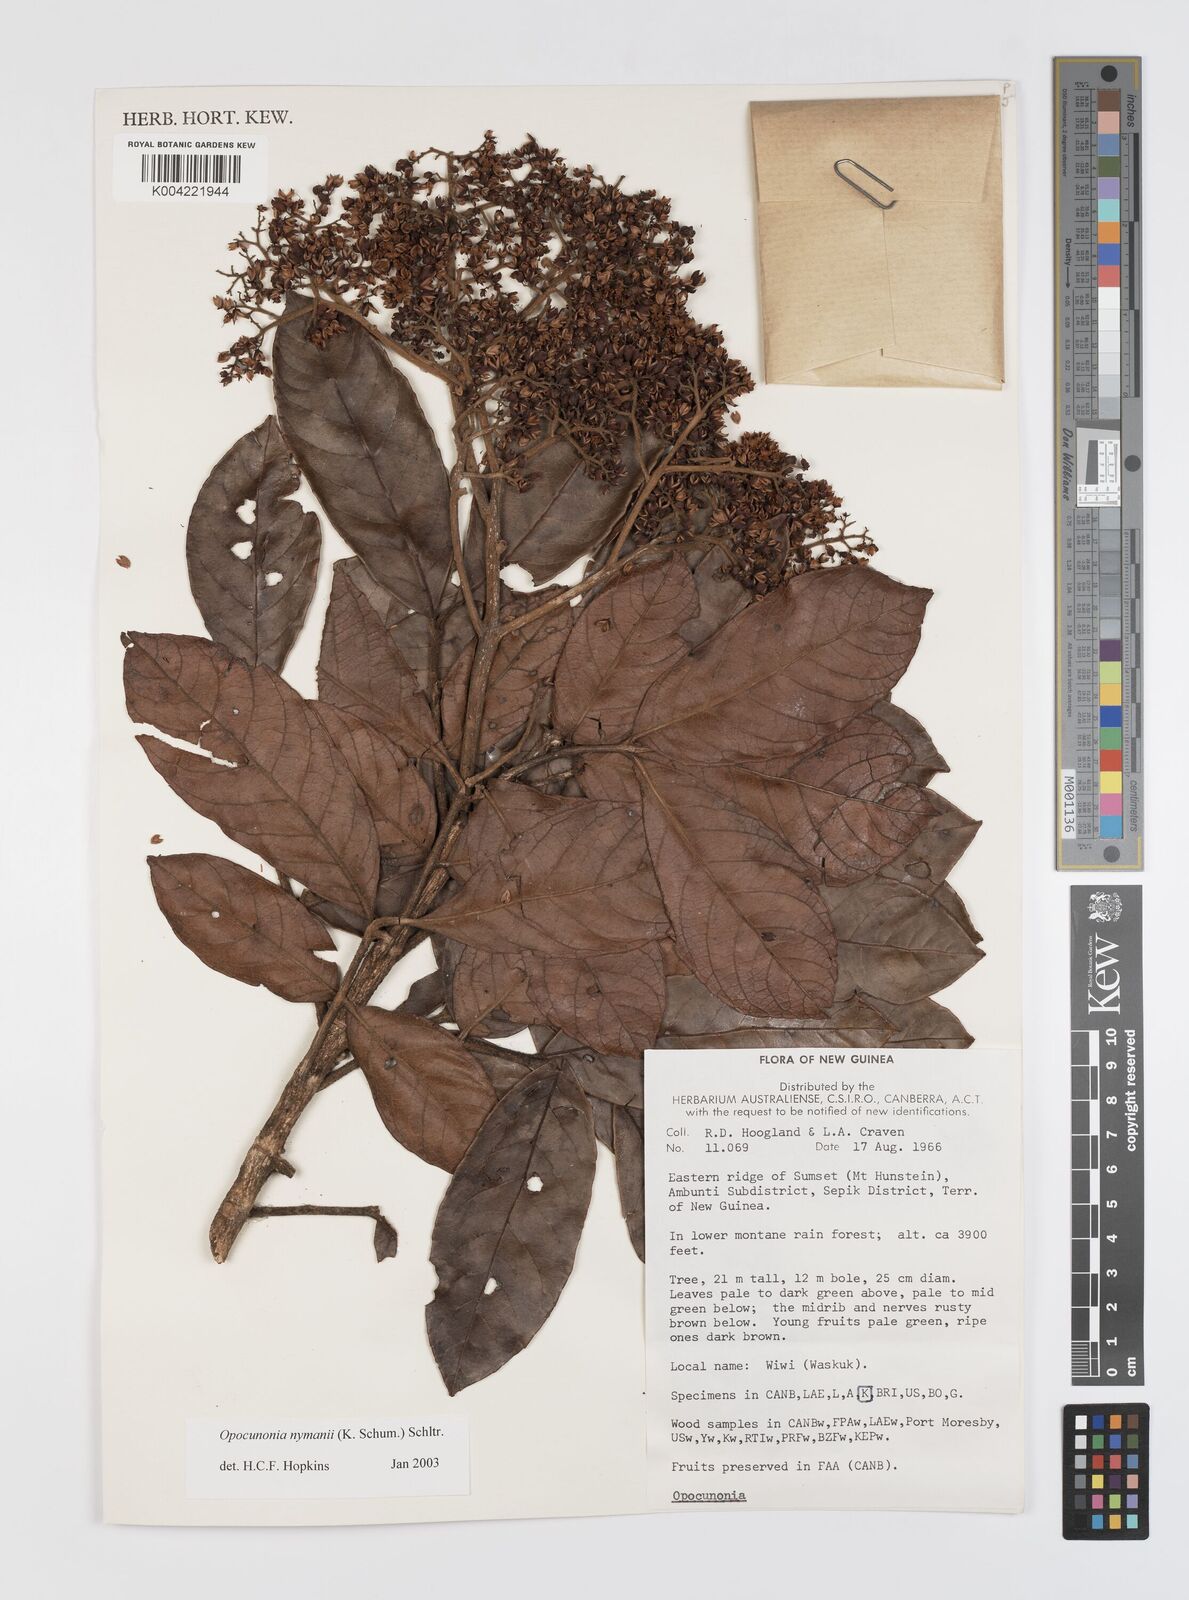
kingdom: Plantae
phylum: Tracheophyta
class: Magnoliopsida
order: Oxalidales
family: Cunoniaceae
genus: Opocunonia
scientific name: Opocunonia nymanii
